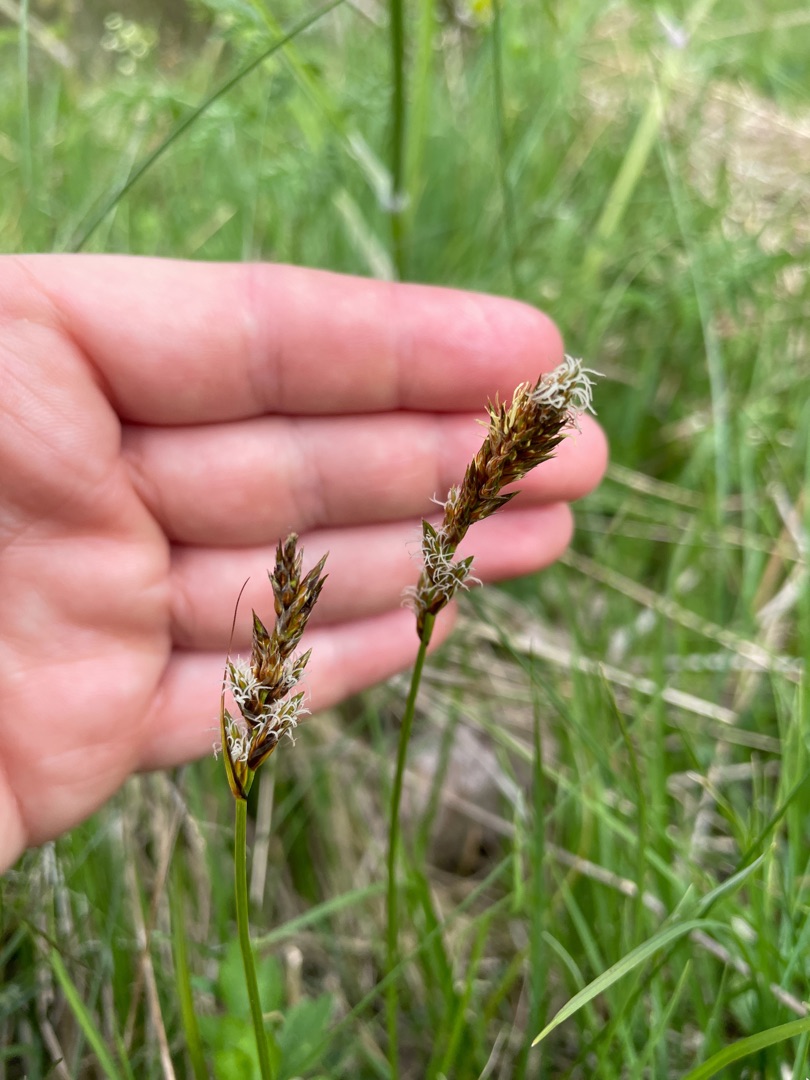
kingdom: Plantae
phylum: Tracheophyta
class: Liliopsida
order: Poales
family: Cyperaceae
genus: Carex
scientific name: Carex disticha
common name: Toradet star
